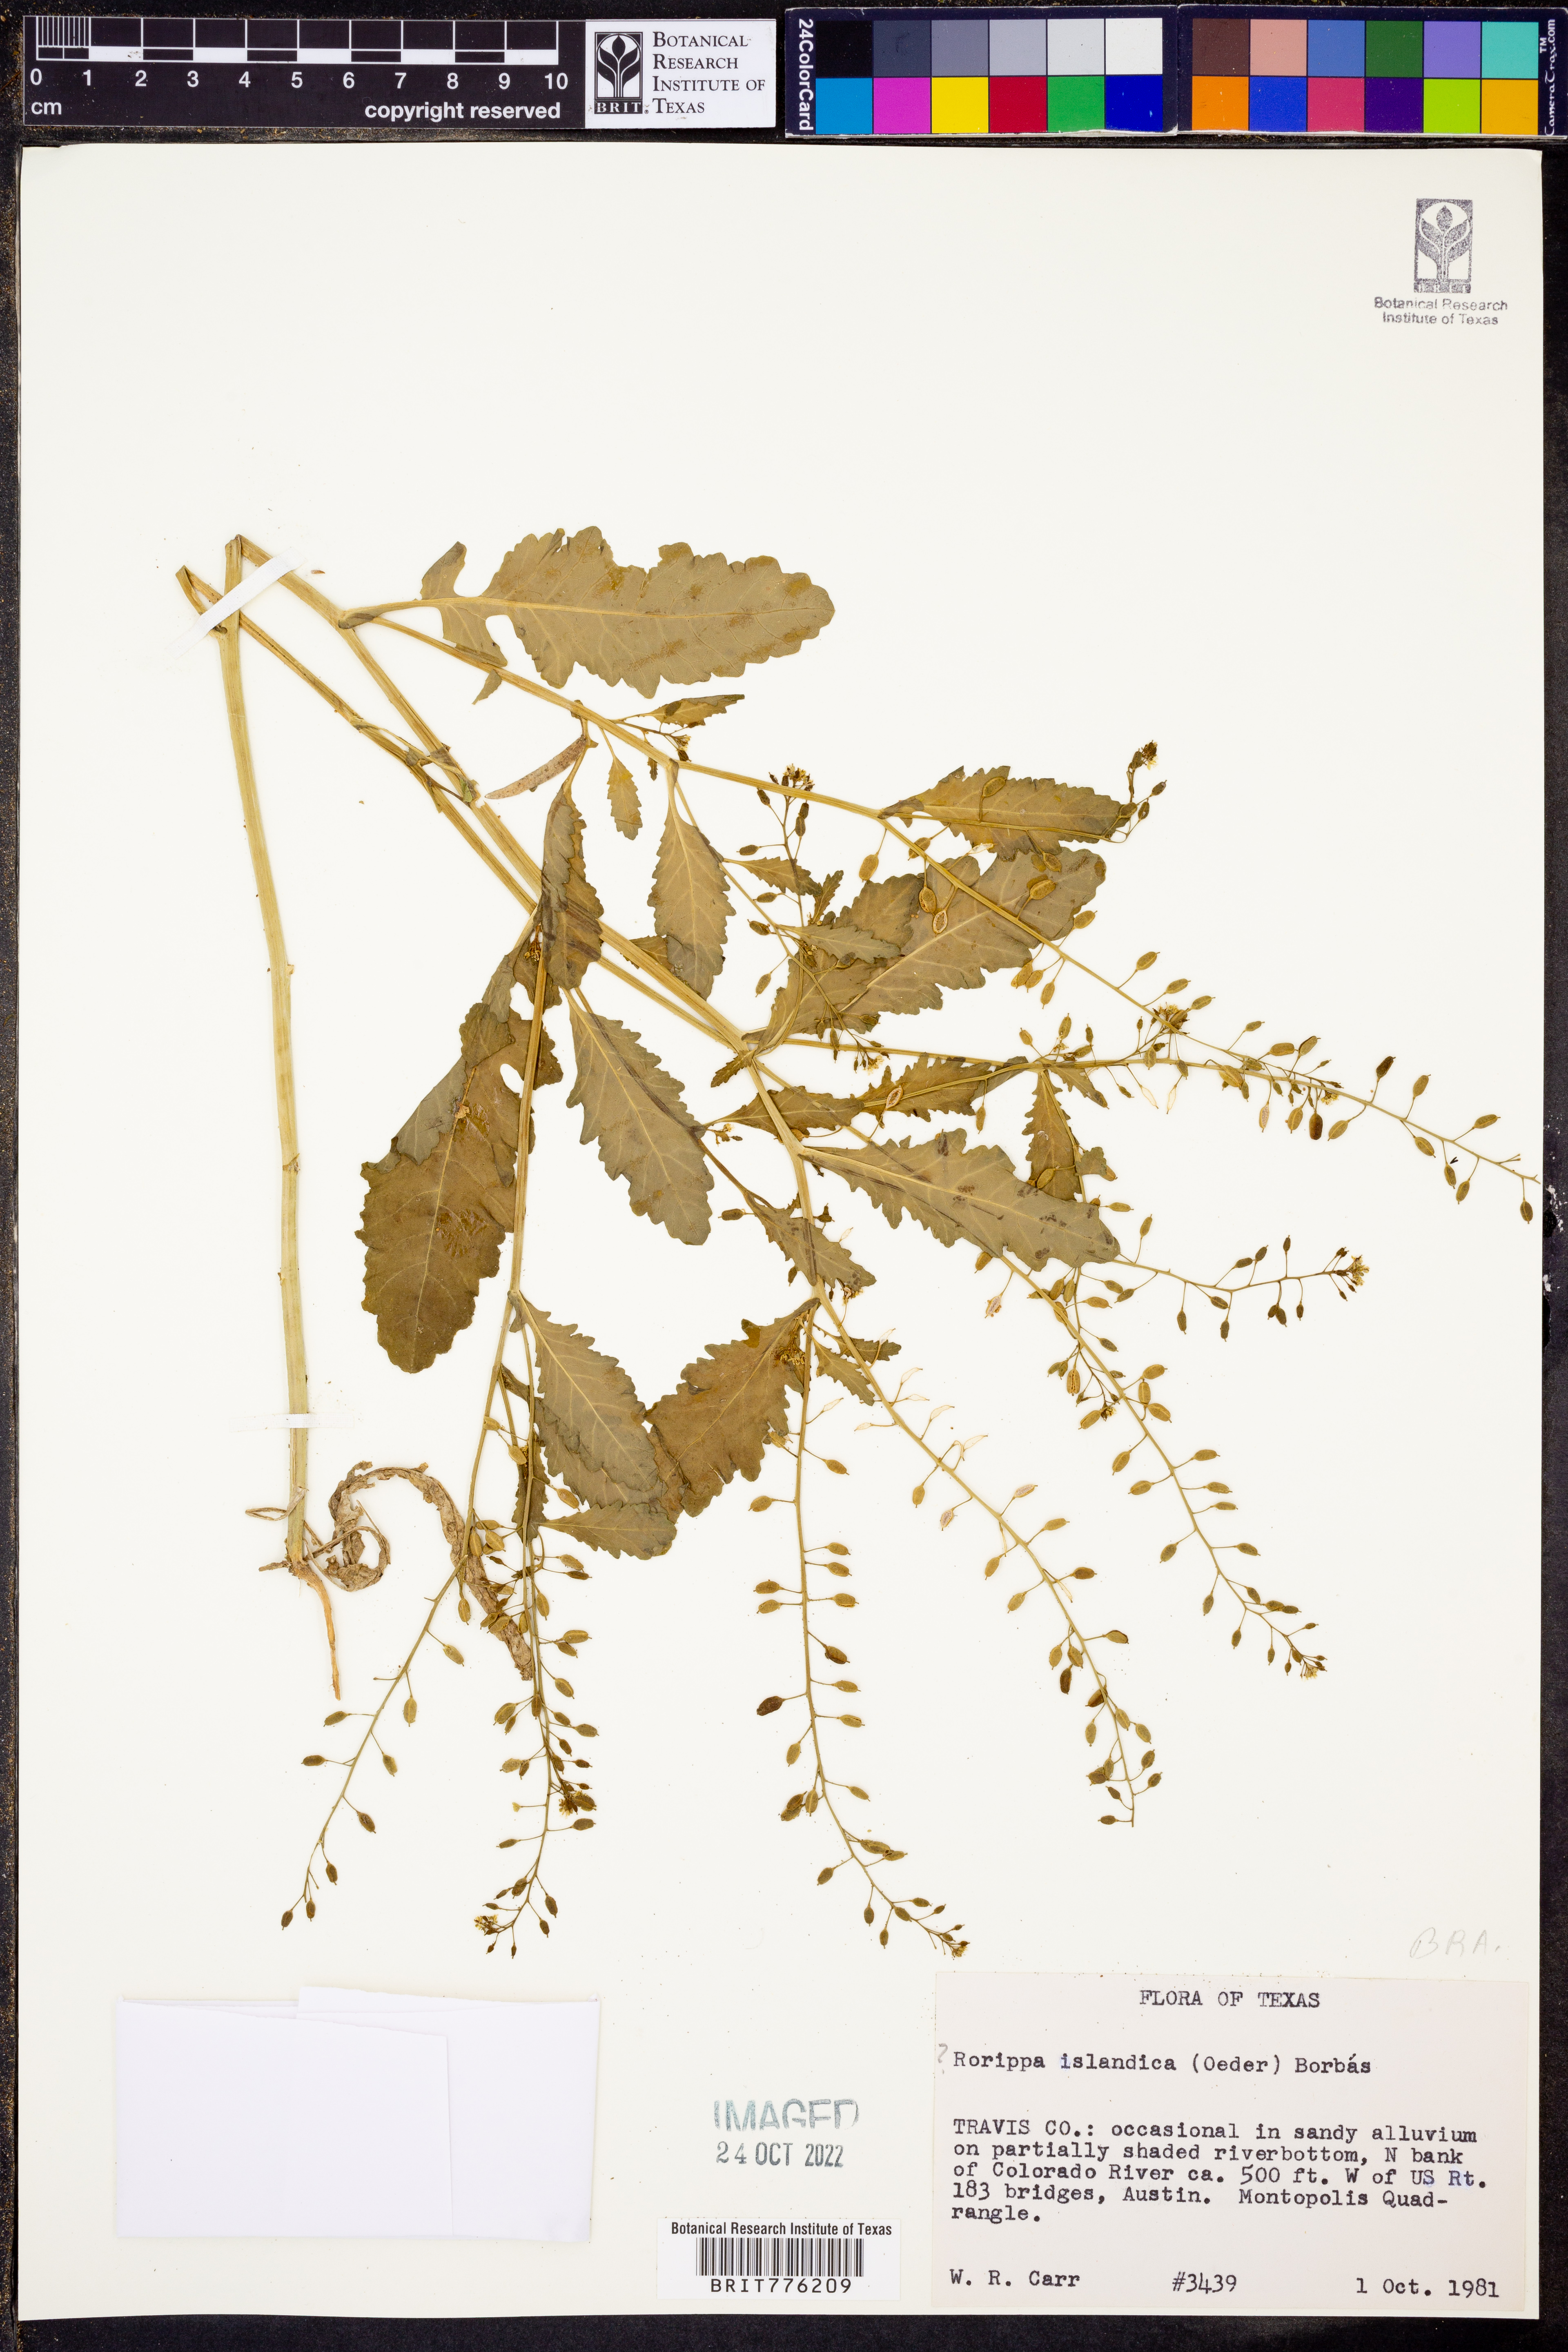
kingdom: Plantae
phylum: Tracheophyta
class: Magnoliopsida
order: Brassicales
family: Brassicaceae
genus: Rorippa
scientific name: Rorippa islandica
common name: Marsh cress
